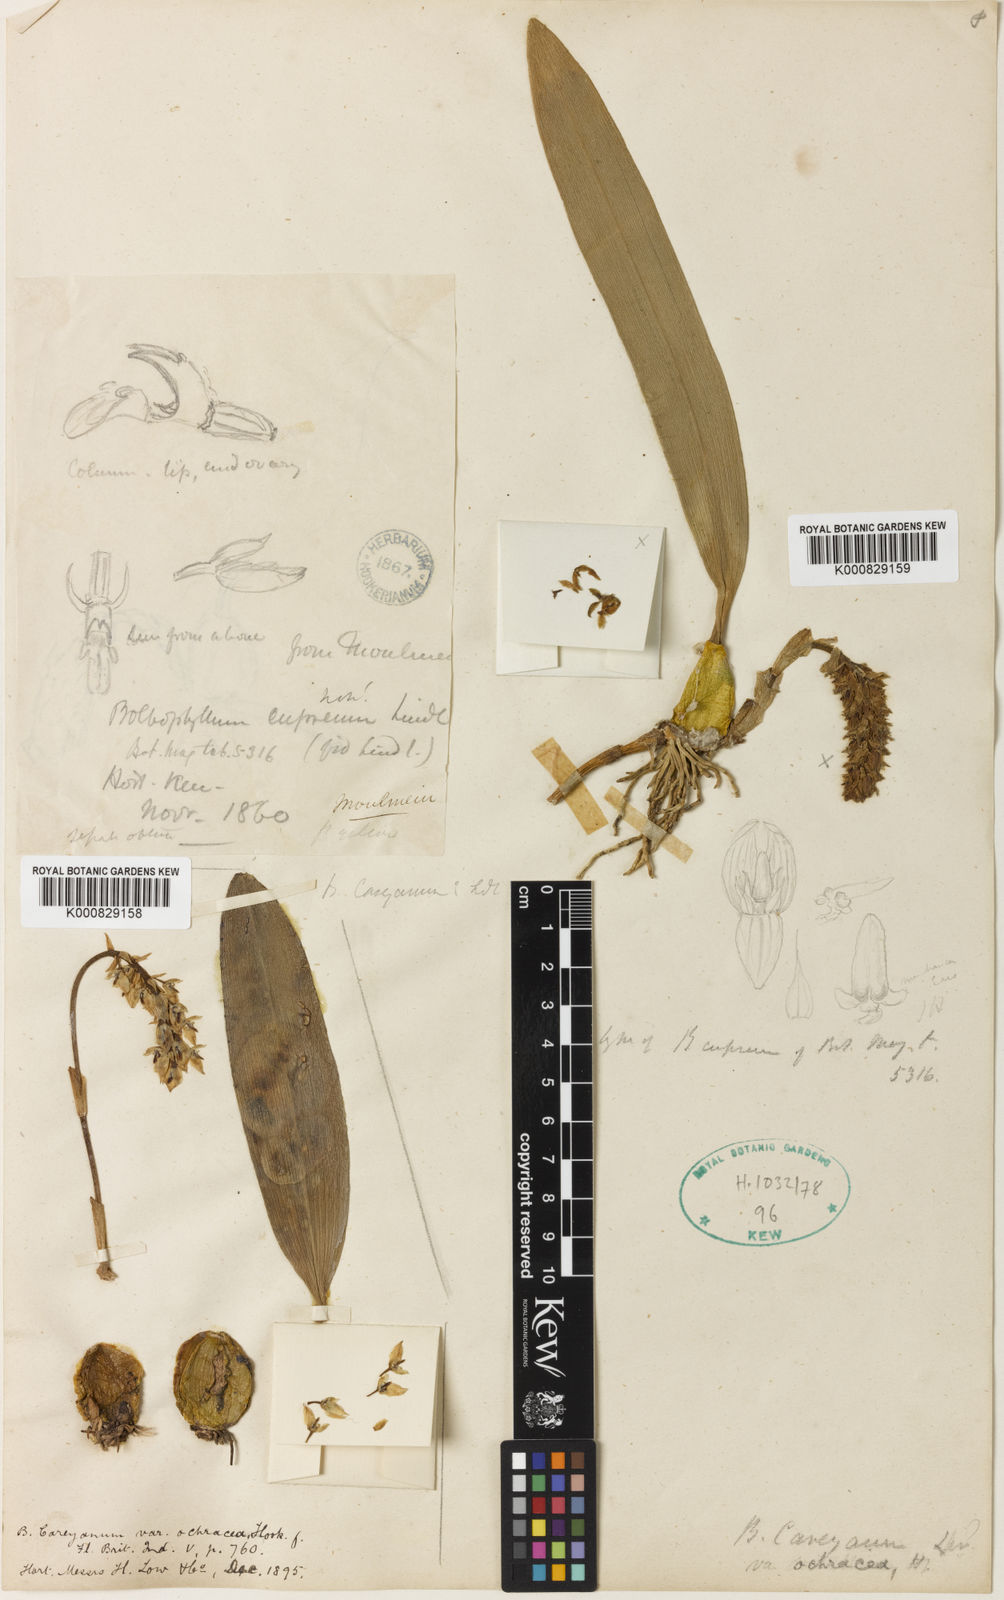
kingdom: Plantae
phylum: Tracheophyta
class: Liliopsida
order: Asparagales
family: Orchidaceae
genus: Bulbophyllum
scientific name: Bulbophyllum careyanum
